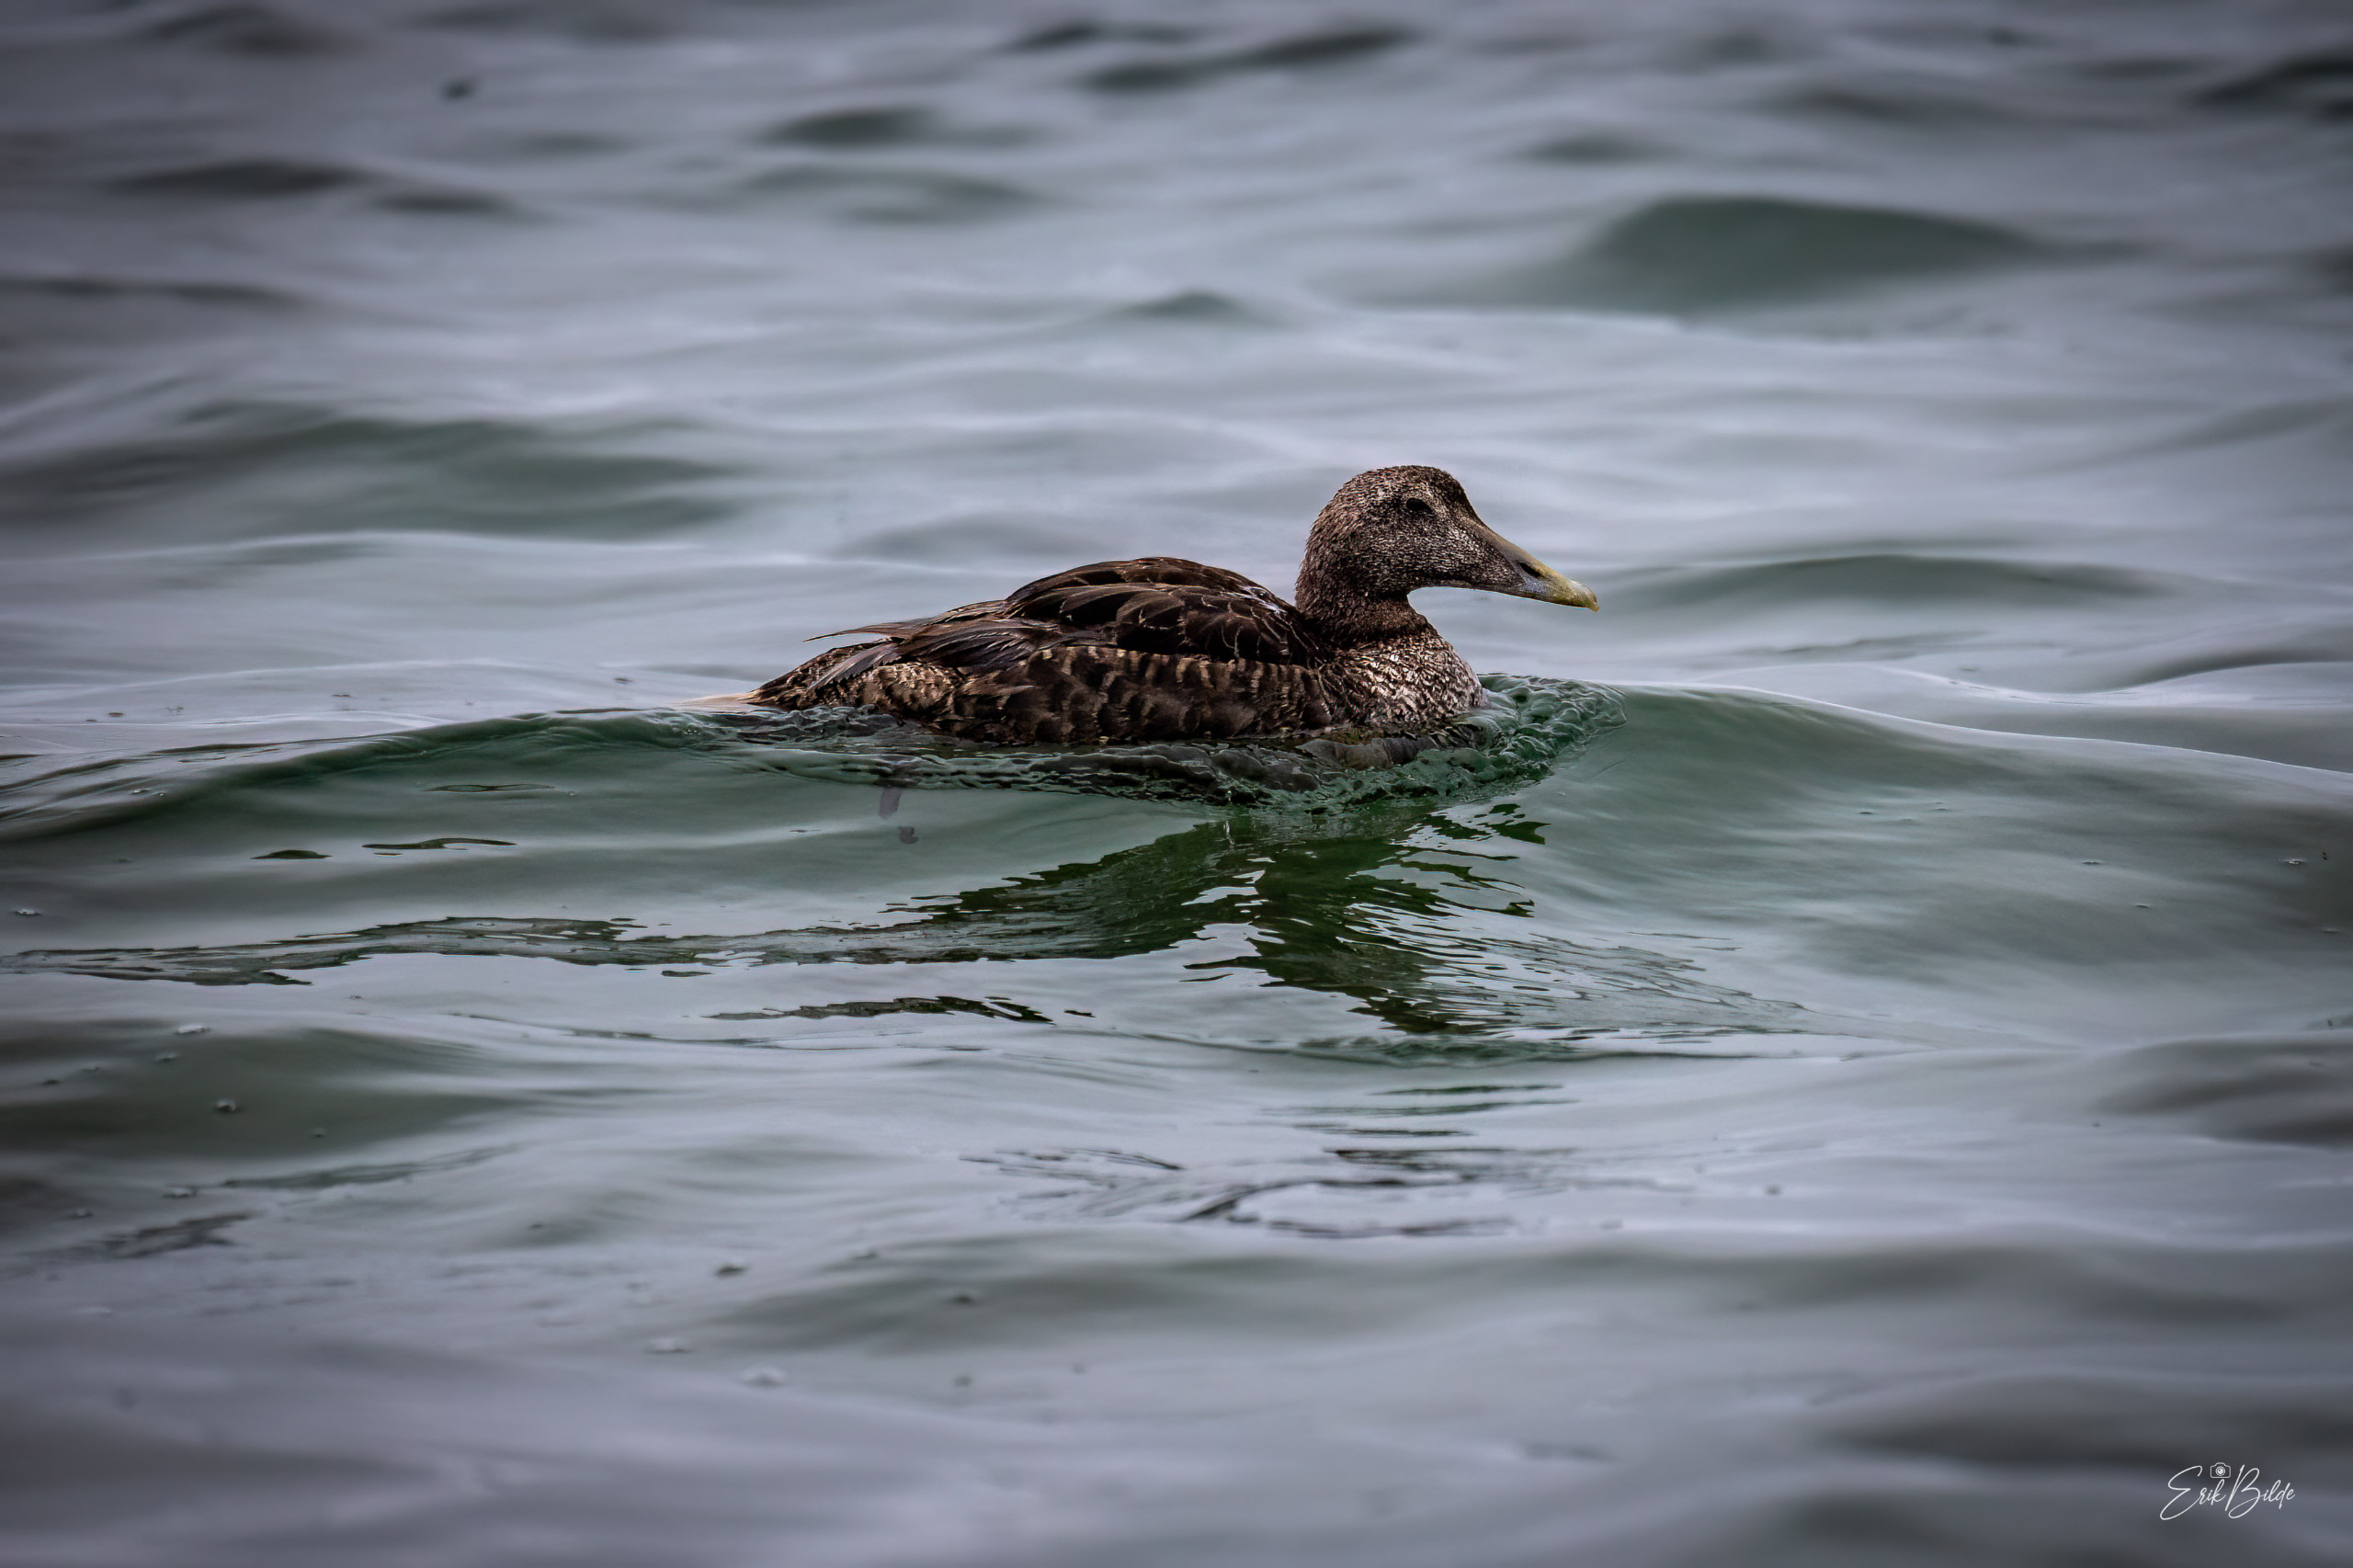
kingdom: Animalia
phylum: Chordata
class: Aves
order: Anseriformes
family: Anatidae
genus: Somateria
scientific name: Somateria mollissima
